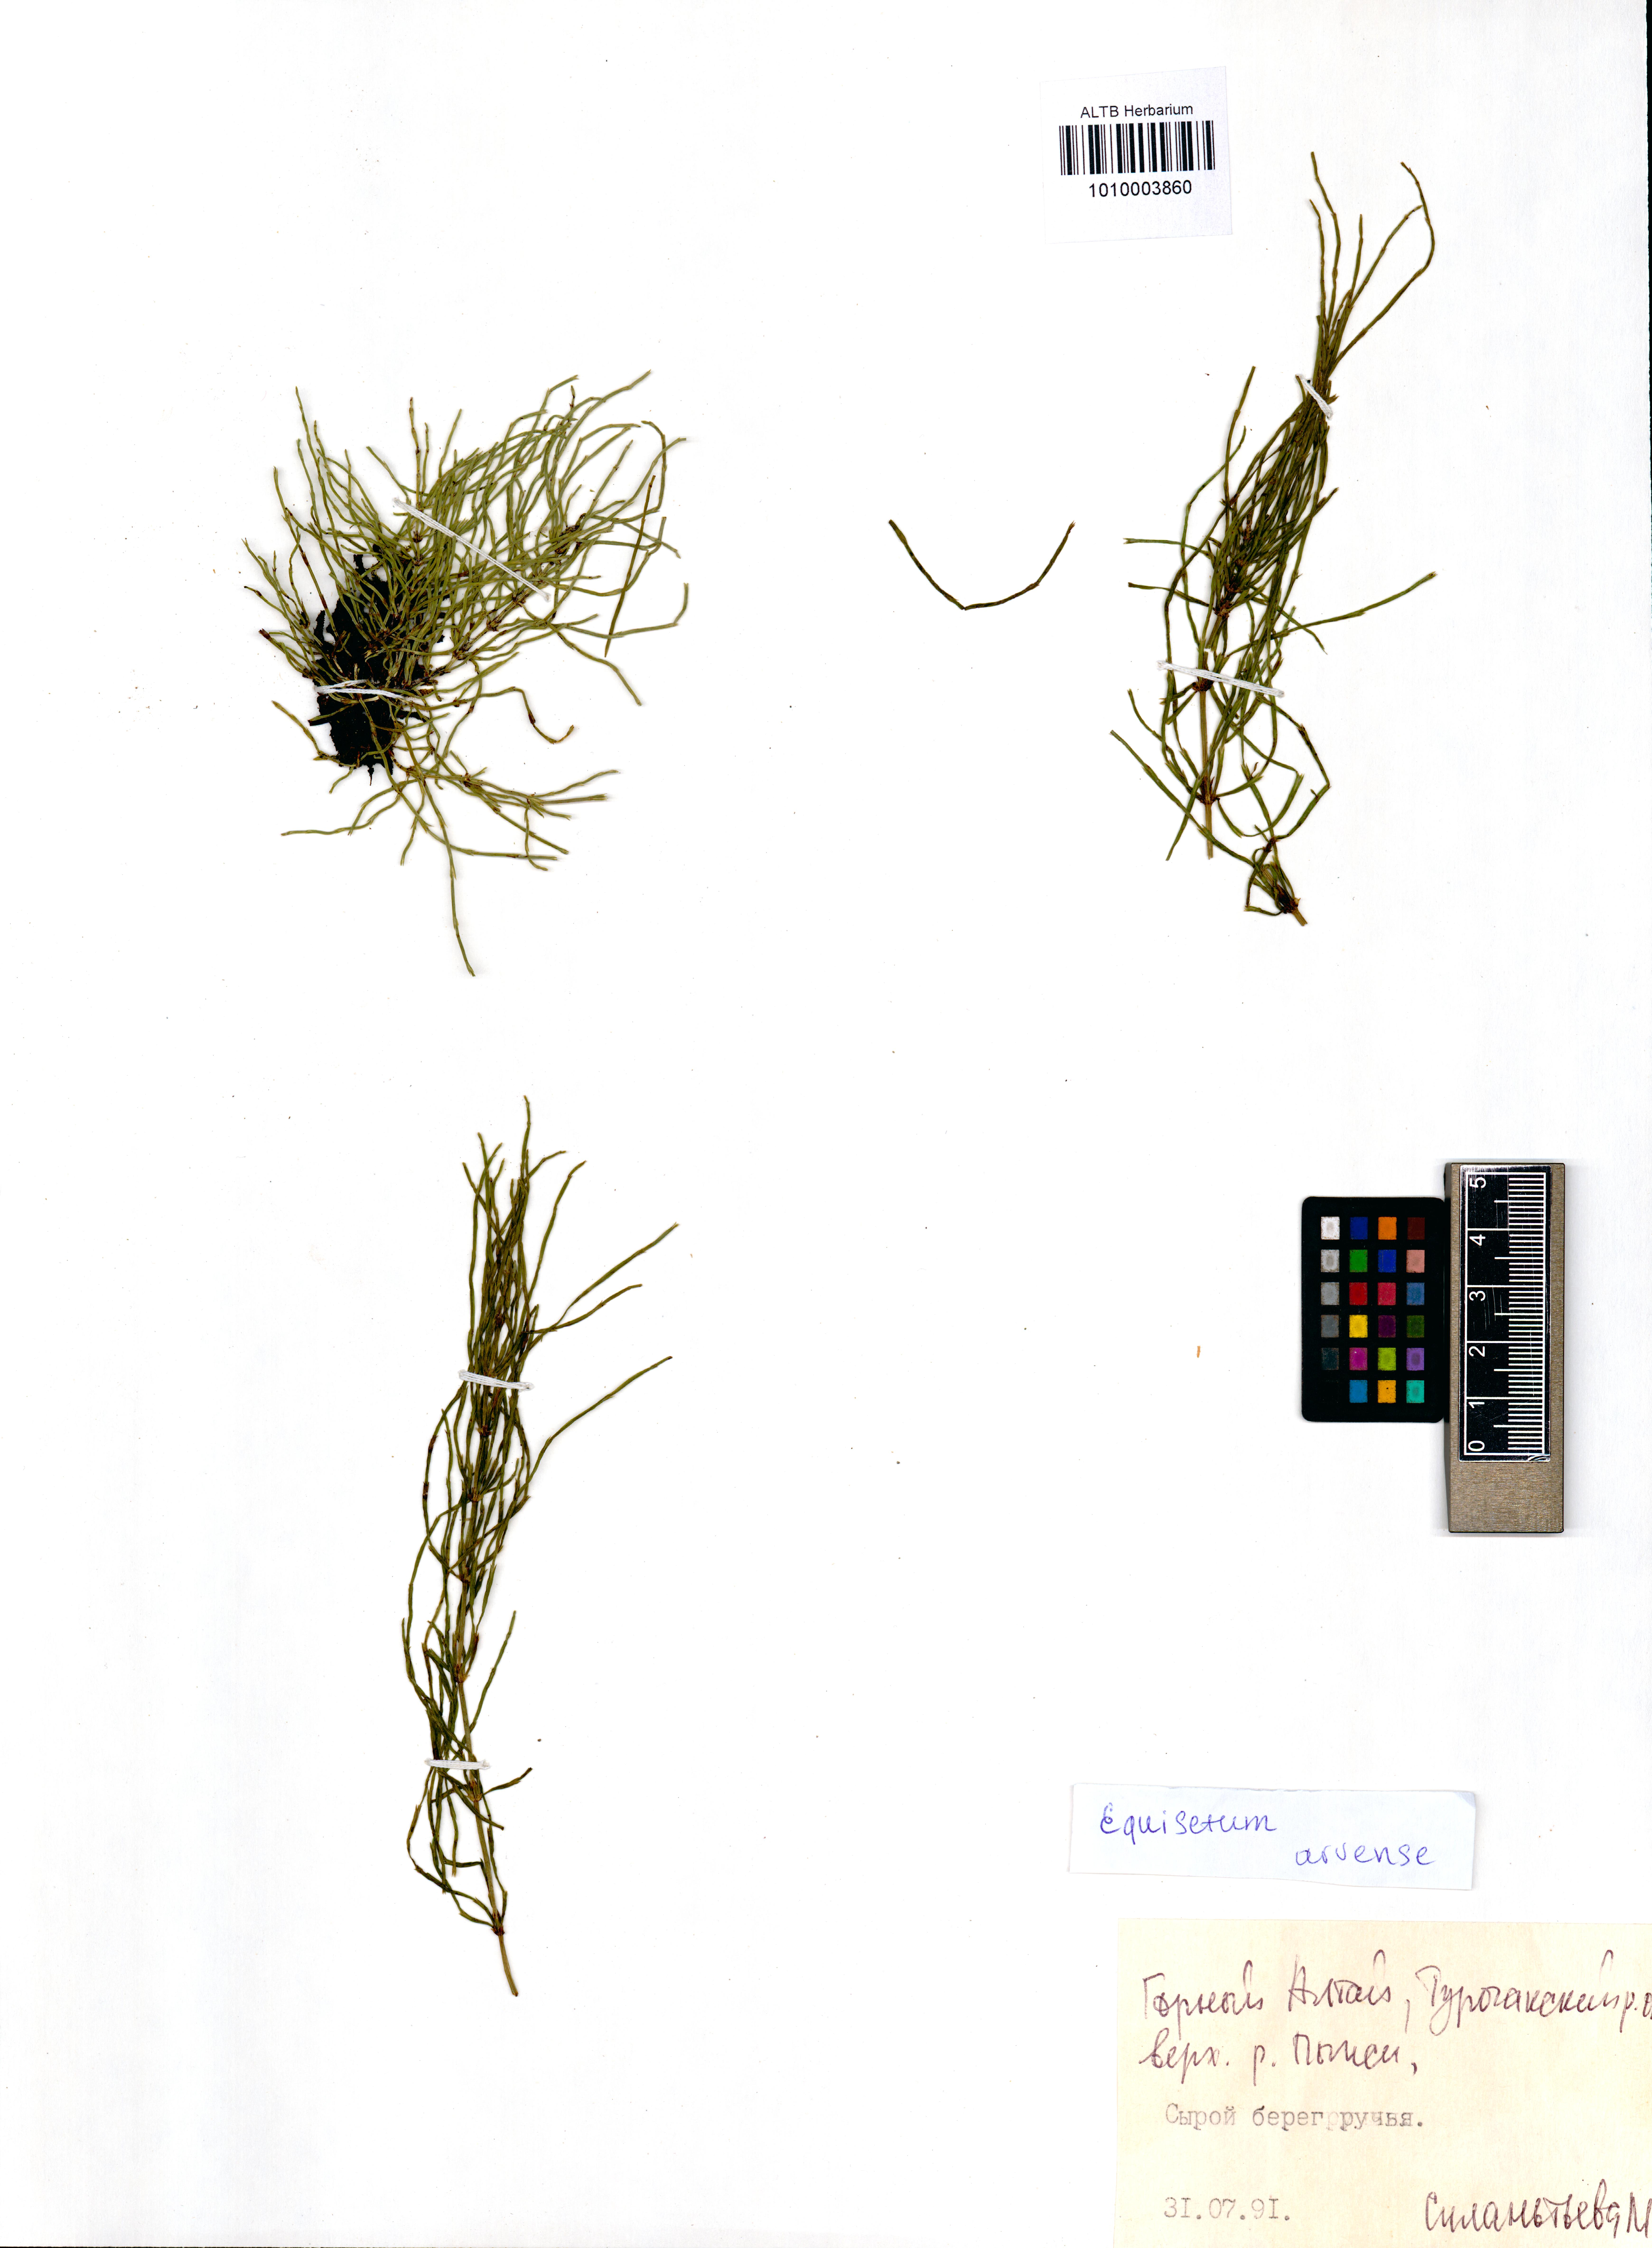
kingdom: Plantae
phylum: Tracheophyta
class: Polypodiopsida
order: Equisetales
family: Equisetaceae
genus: Equisetum
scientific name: Equisetum arvense
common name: Field horsetail
